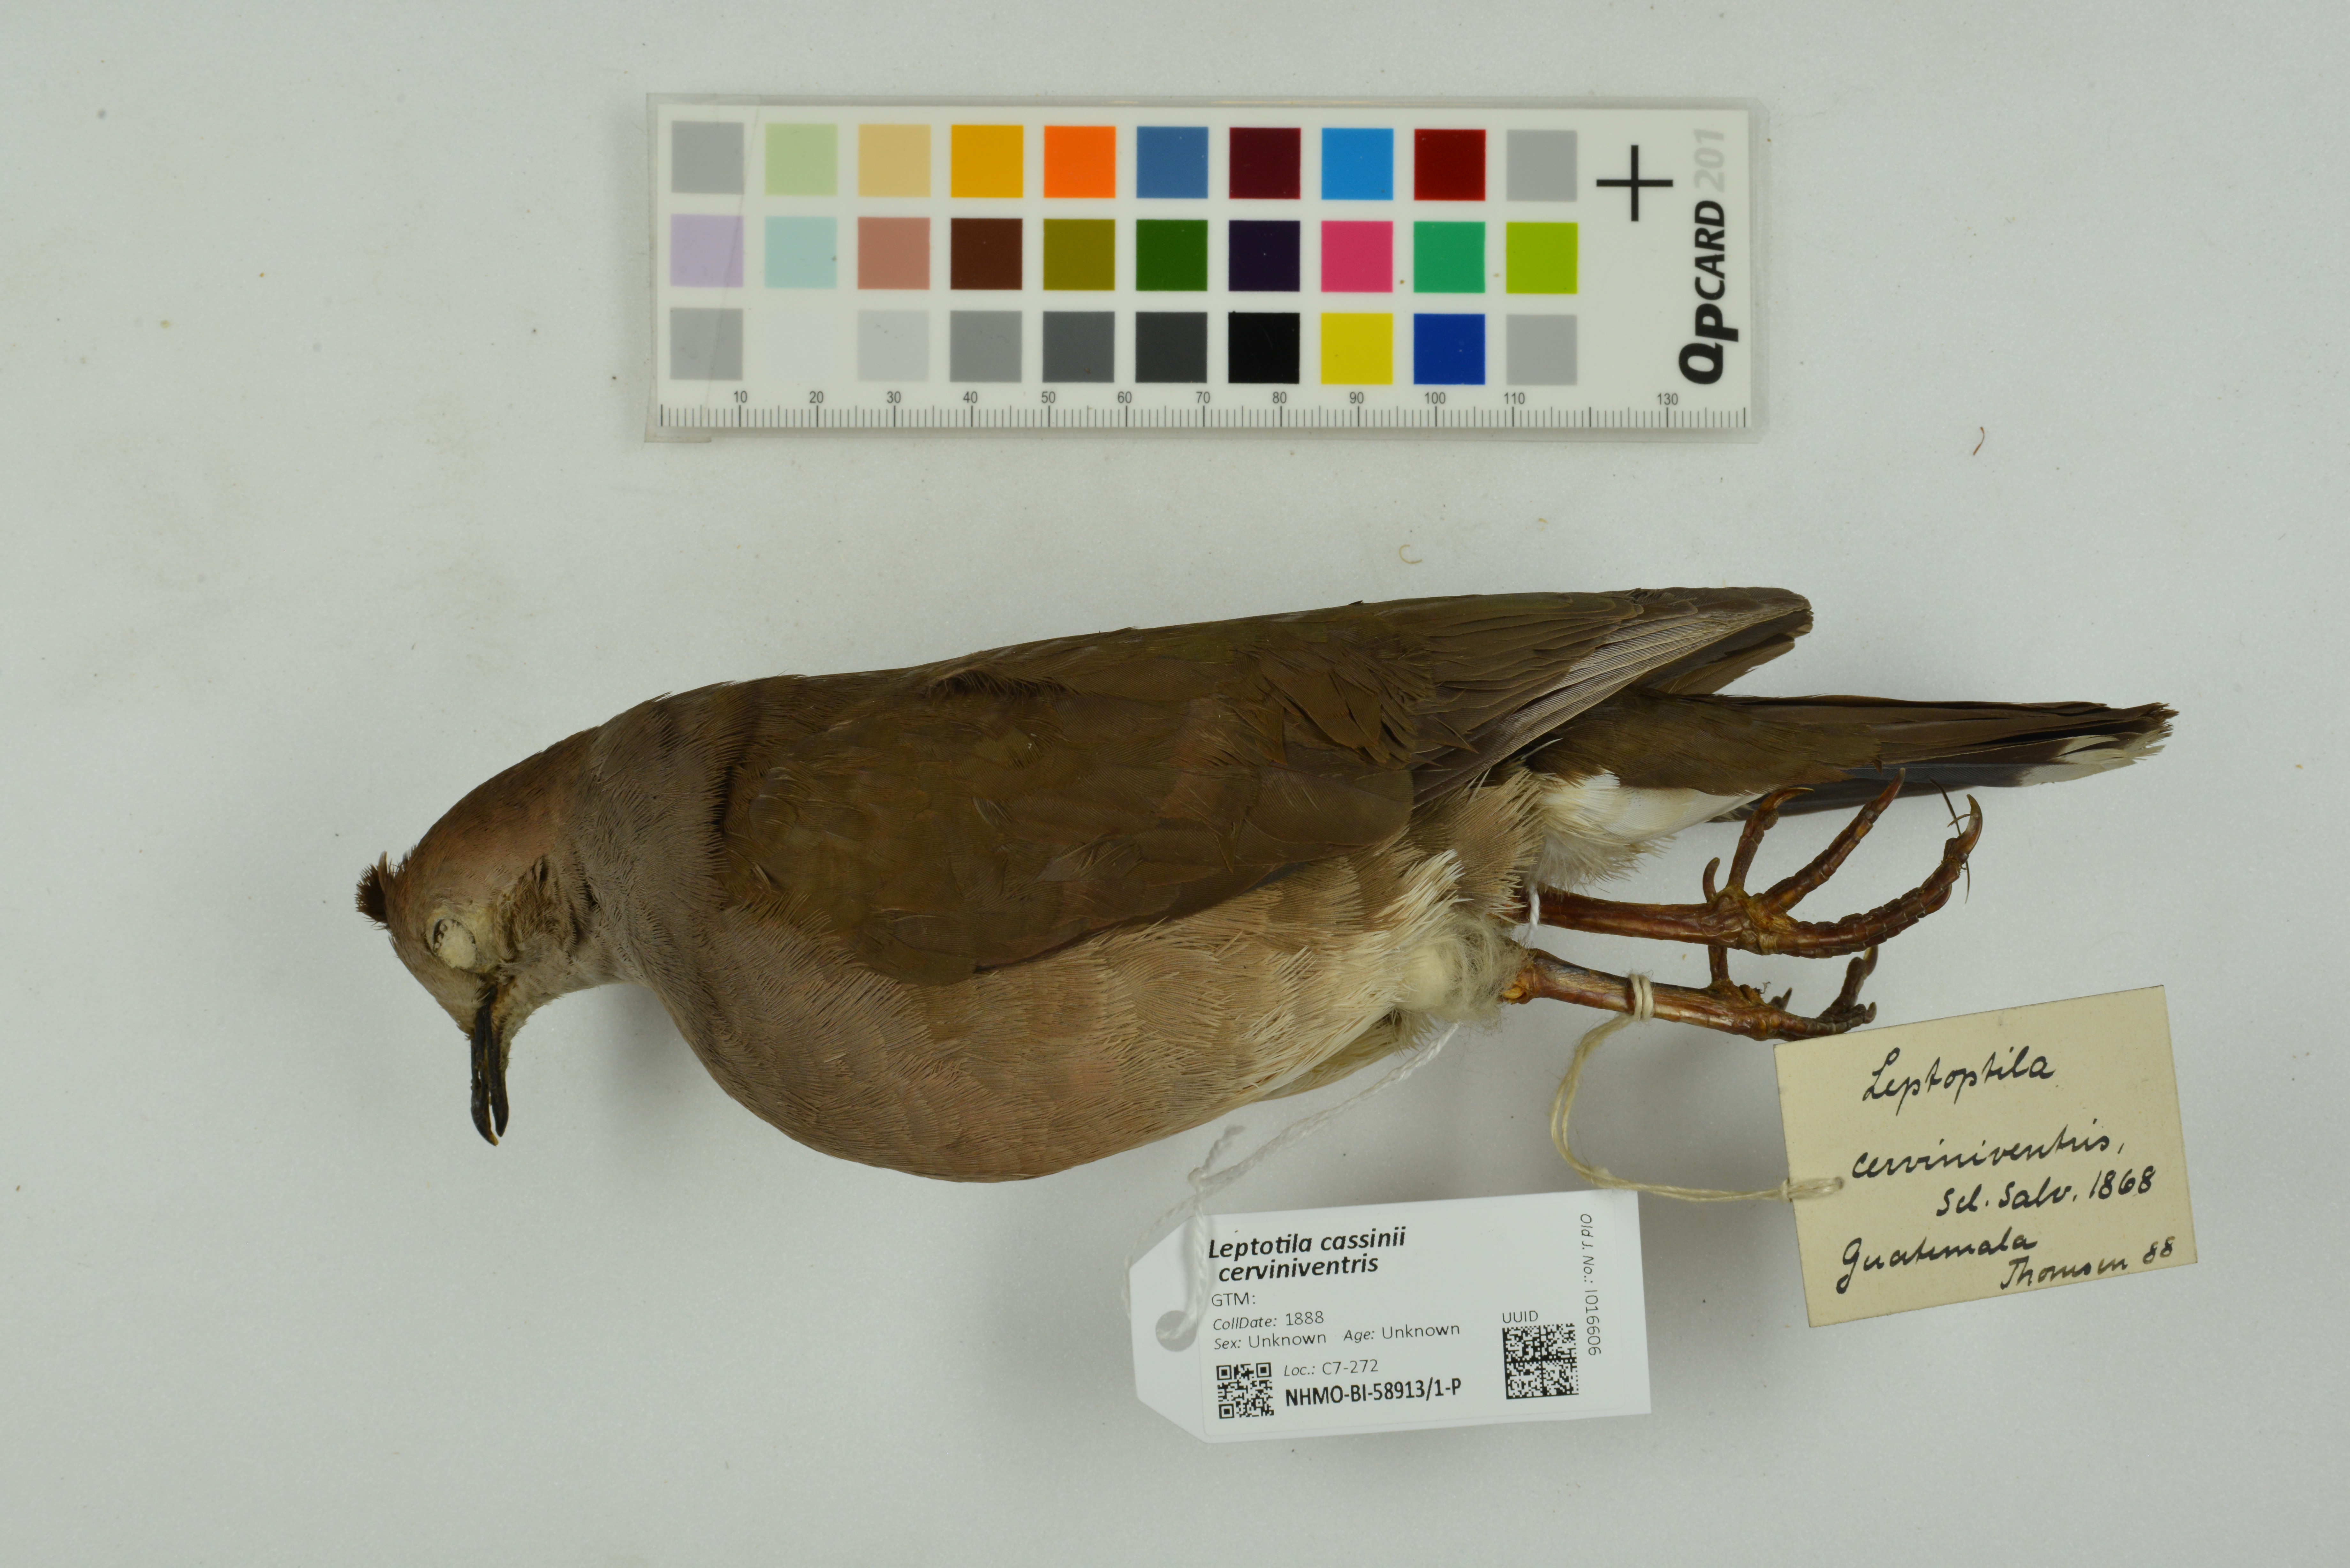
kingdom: Animalia
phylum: Chordata
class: Aves
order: Columbiformes
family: Columbidae
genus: Leptotila
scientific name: Leptotila cassinii
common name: Grey-chested dove
